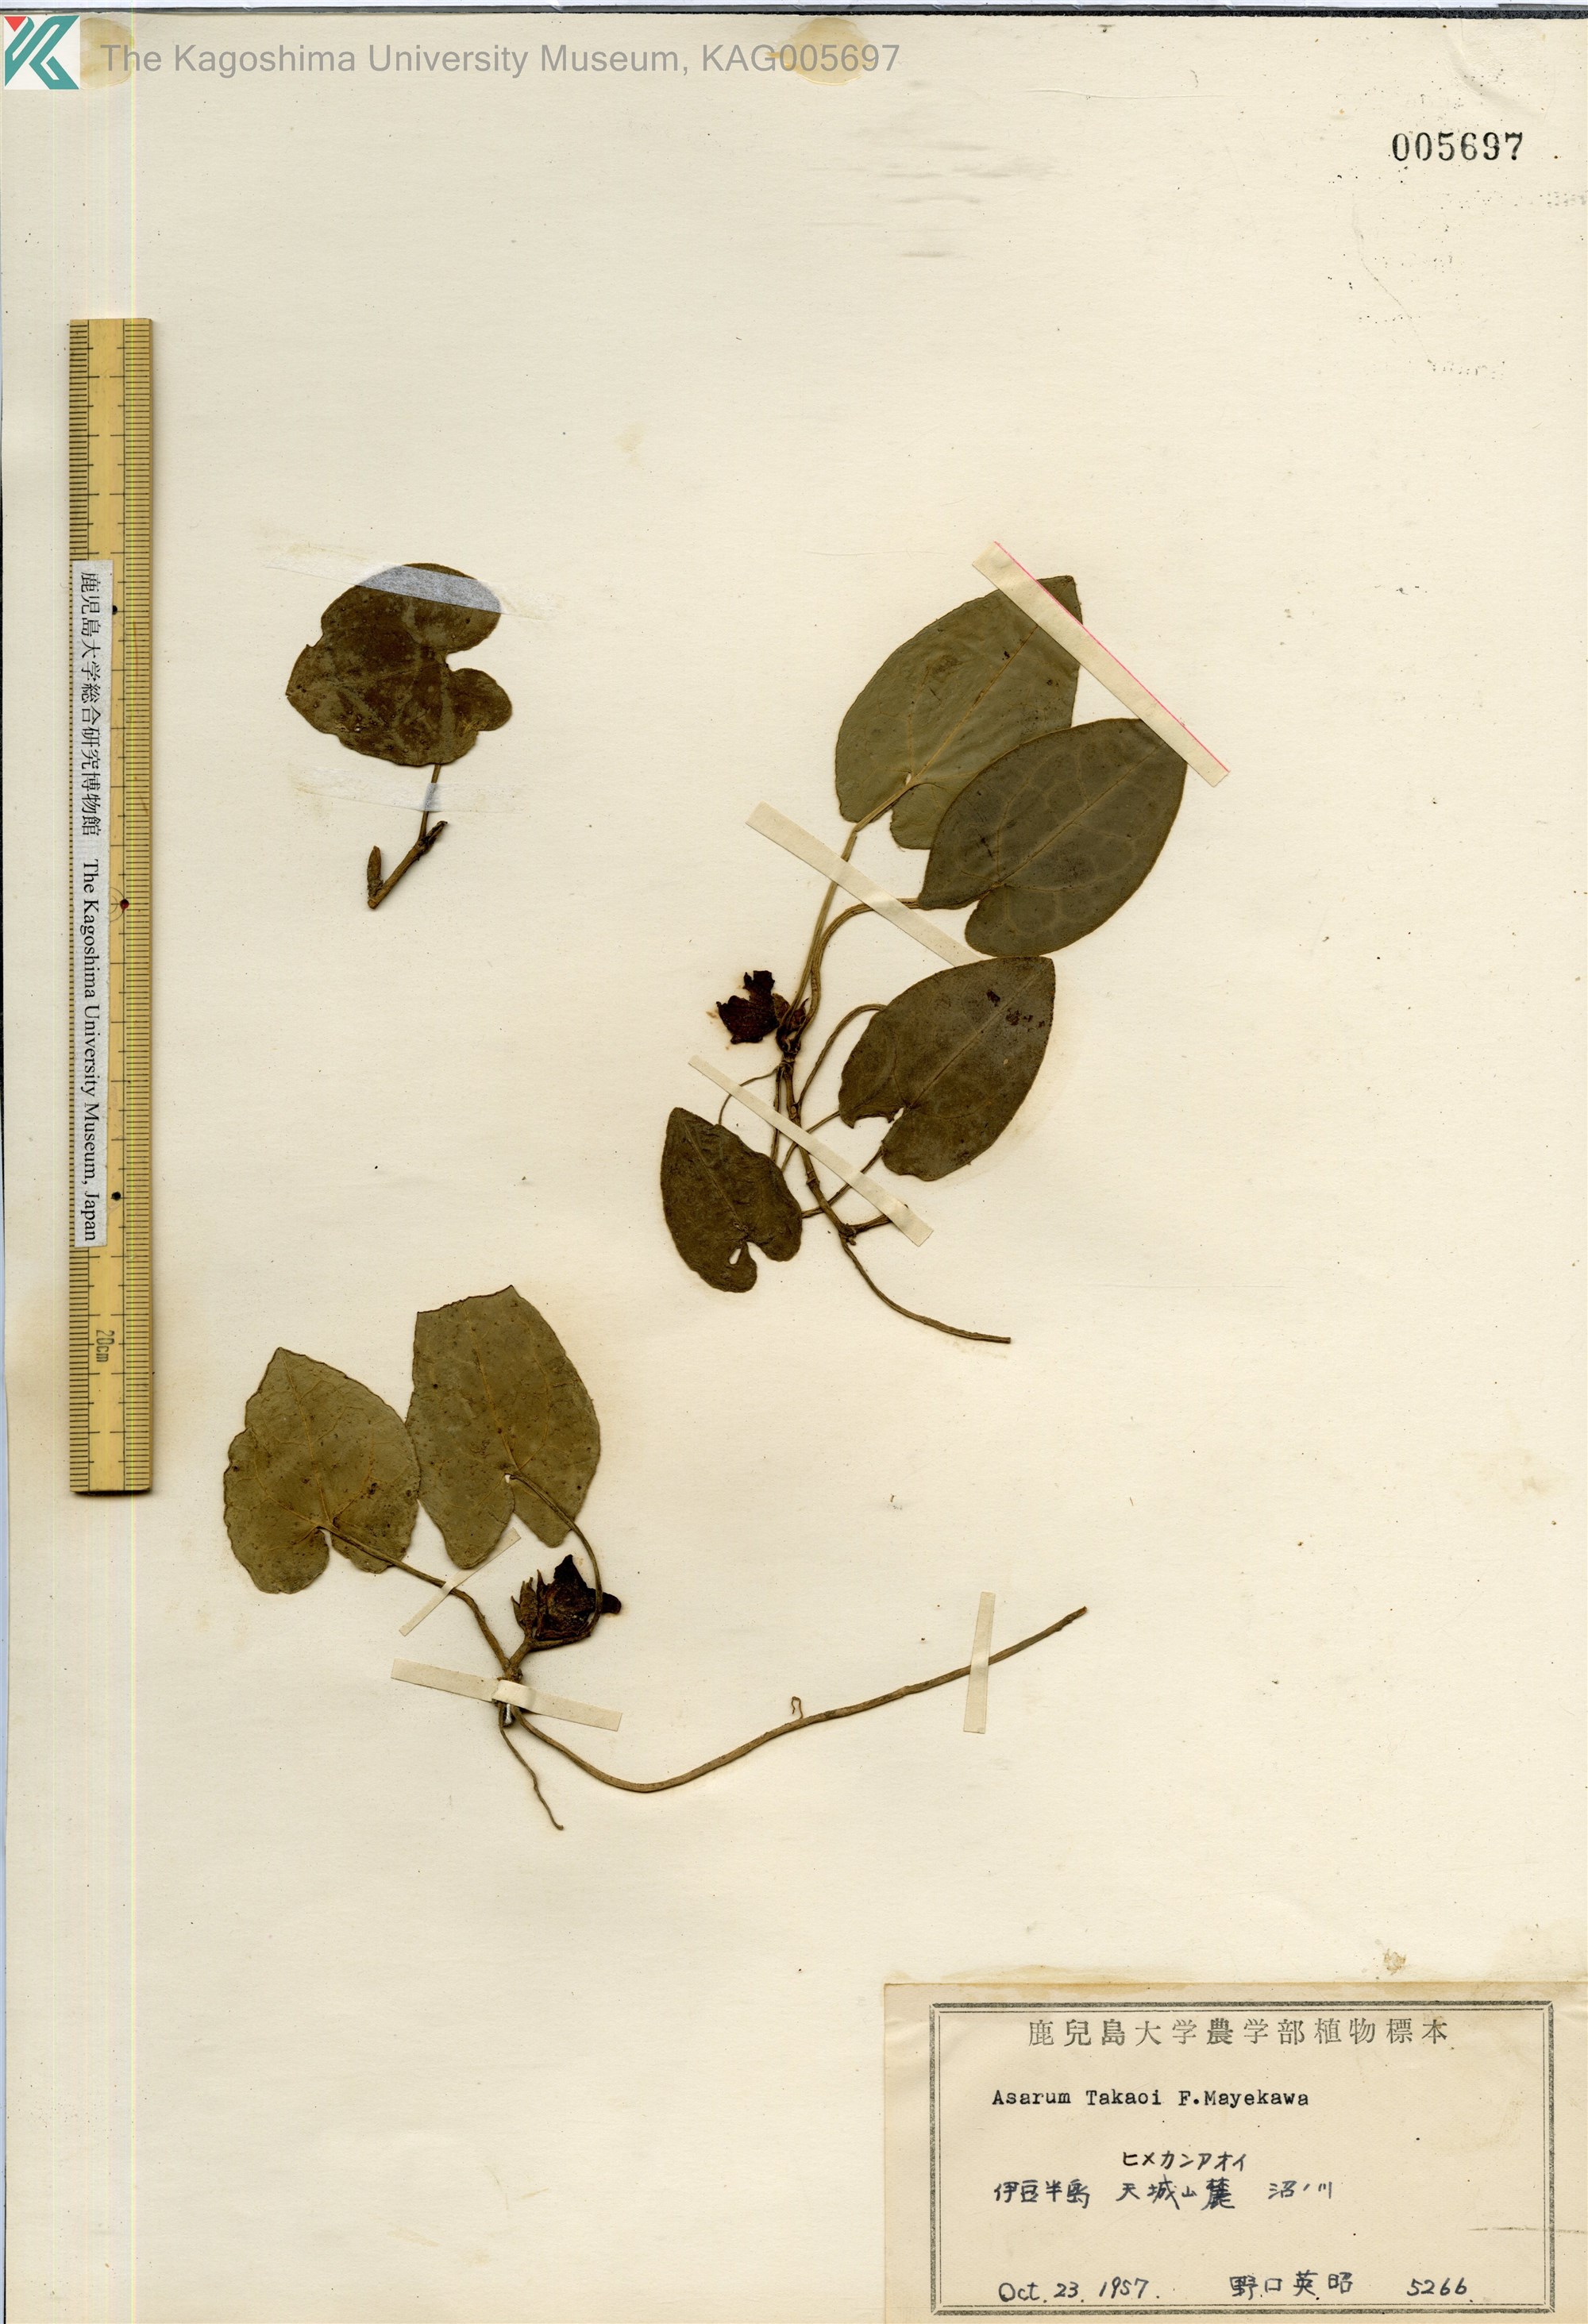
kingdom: Plantae
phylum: Tracheophyta
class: Magnoliopsida
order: Piperales
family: Aristolochiaceae
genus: Asarum
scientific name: Asarum fauriei
